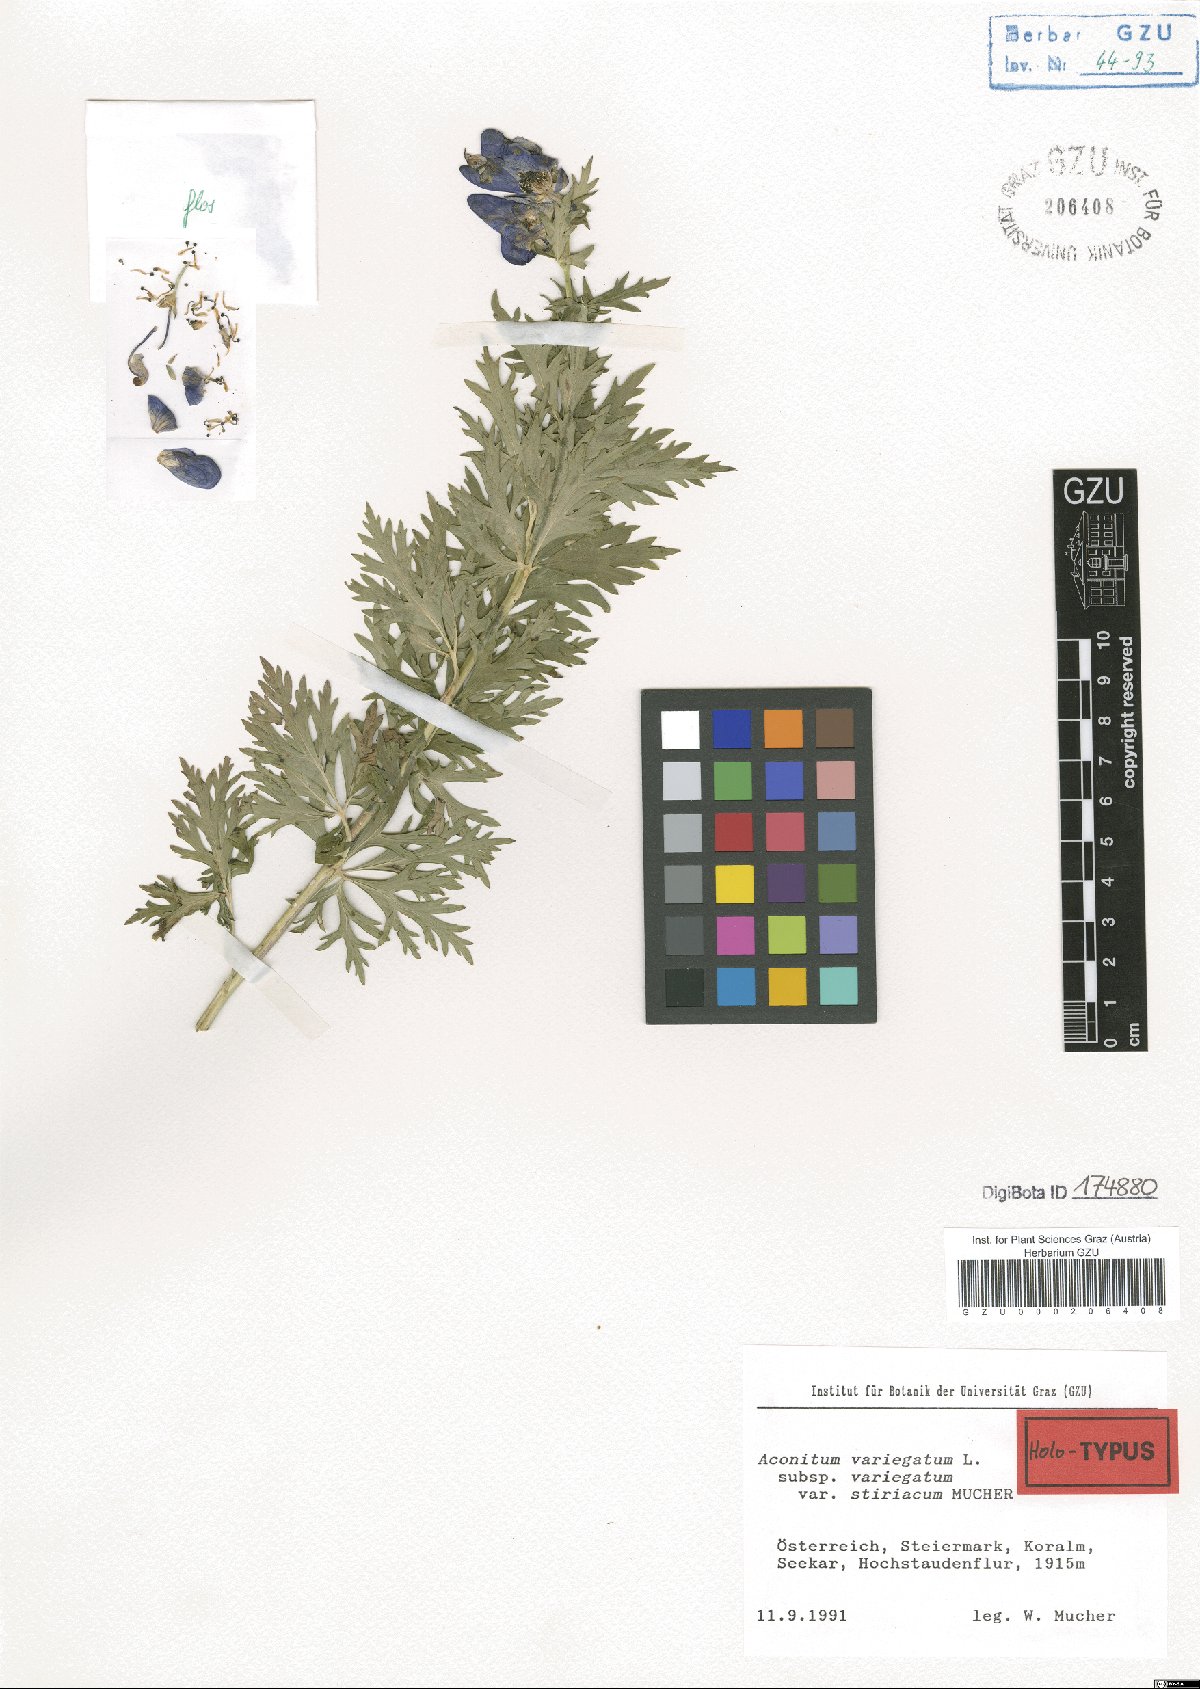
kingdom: Plantae
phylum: Tracheophyta
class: Magnoliopsida
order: Ranunculales
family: Ranunculaceae
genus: Aconitum
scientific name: Aconitum variegatum
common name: Manchurian monkshood
